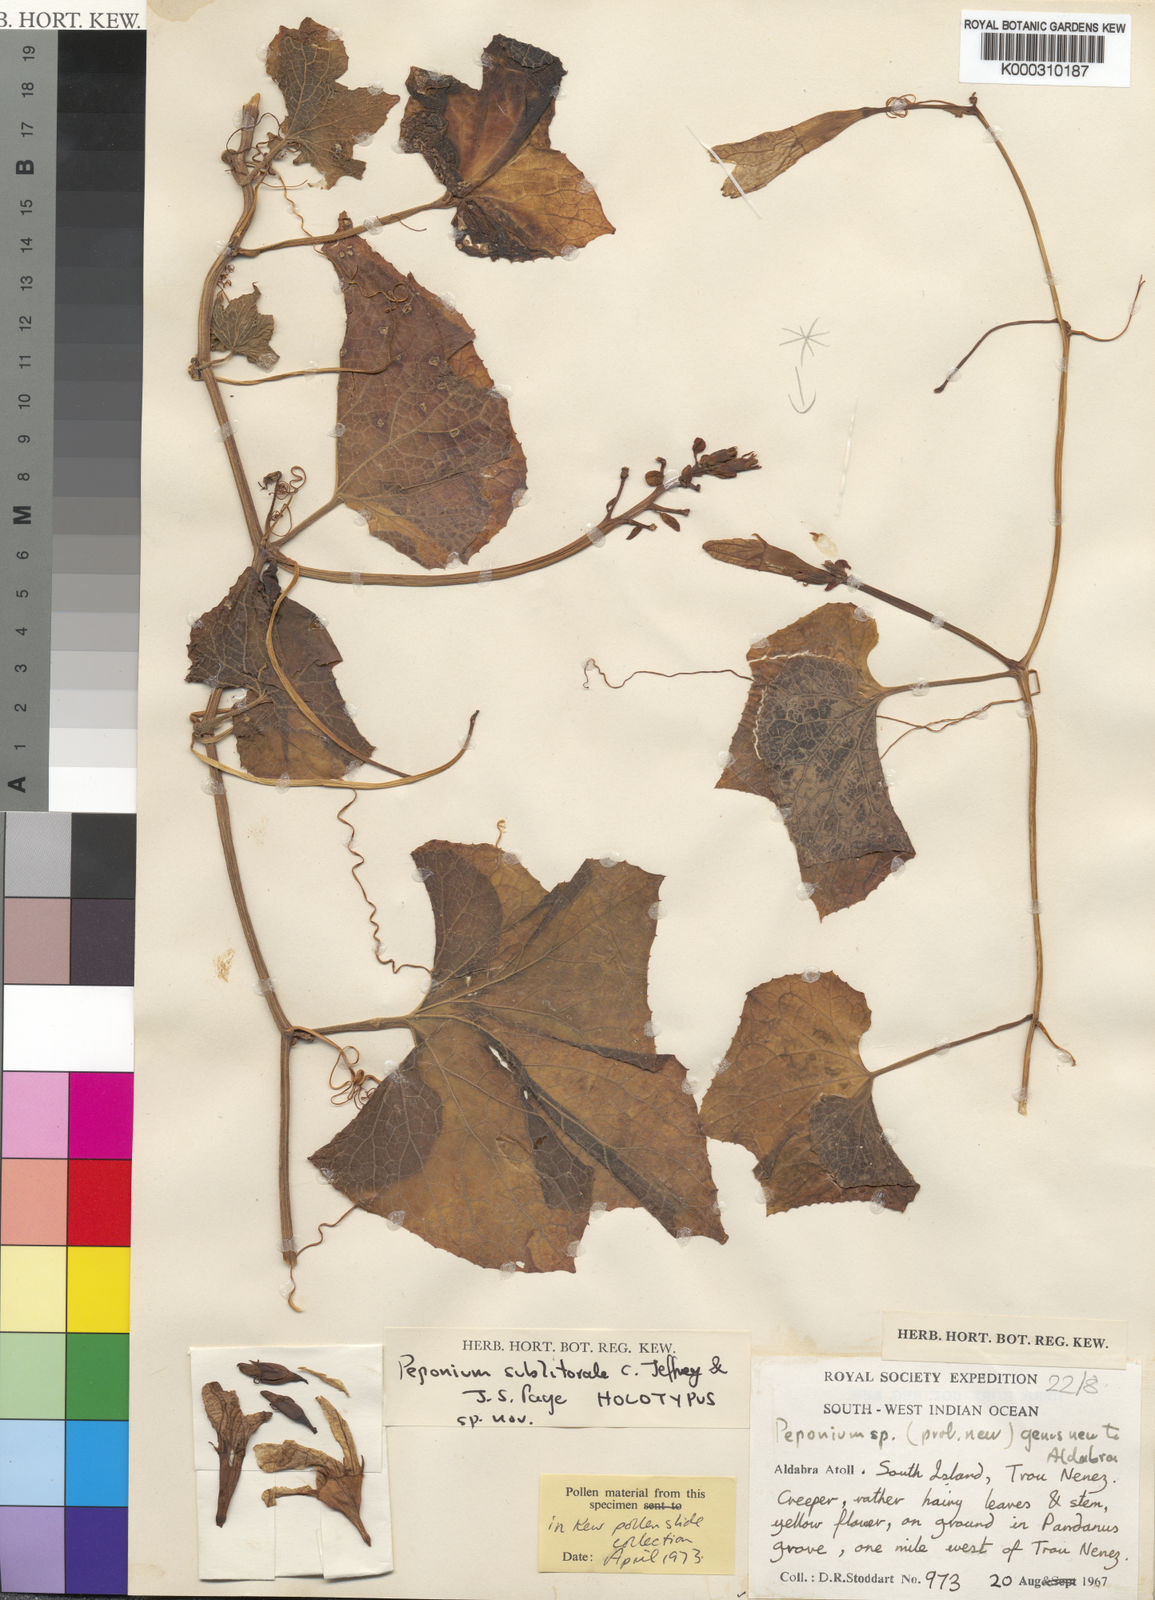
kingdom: Plantae
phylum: Tracheophyta
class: Magnoliopsida
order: Cucurbitales
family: Cucurbitaceae
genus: Peponium
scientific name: Peponium sublitorale
